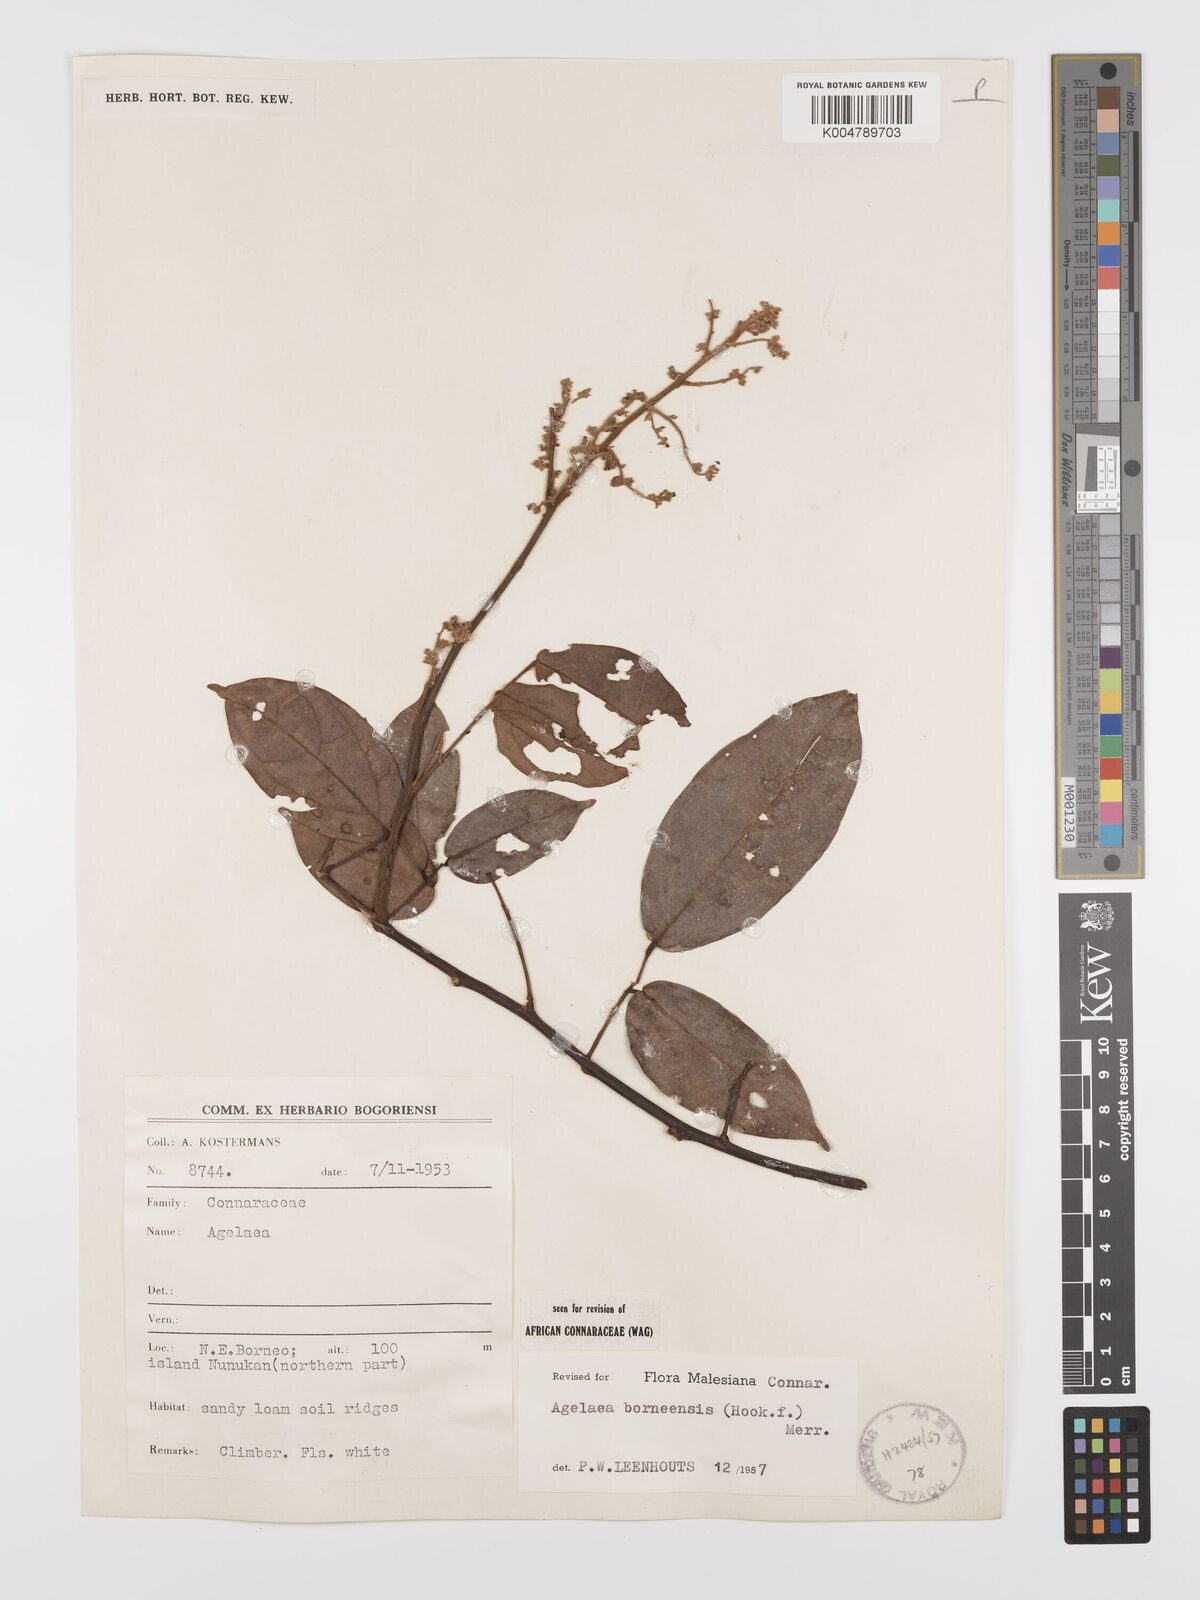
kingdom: Plantae
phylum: Tracheophyta
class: Magnoliopsida
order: Oxalidales
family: Connaraceae
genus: Agelaea
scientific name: Agelaea borneensis
